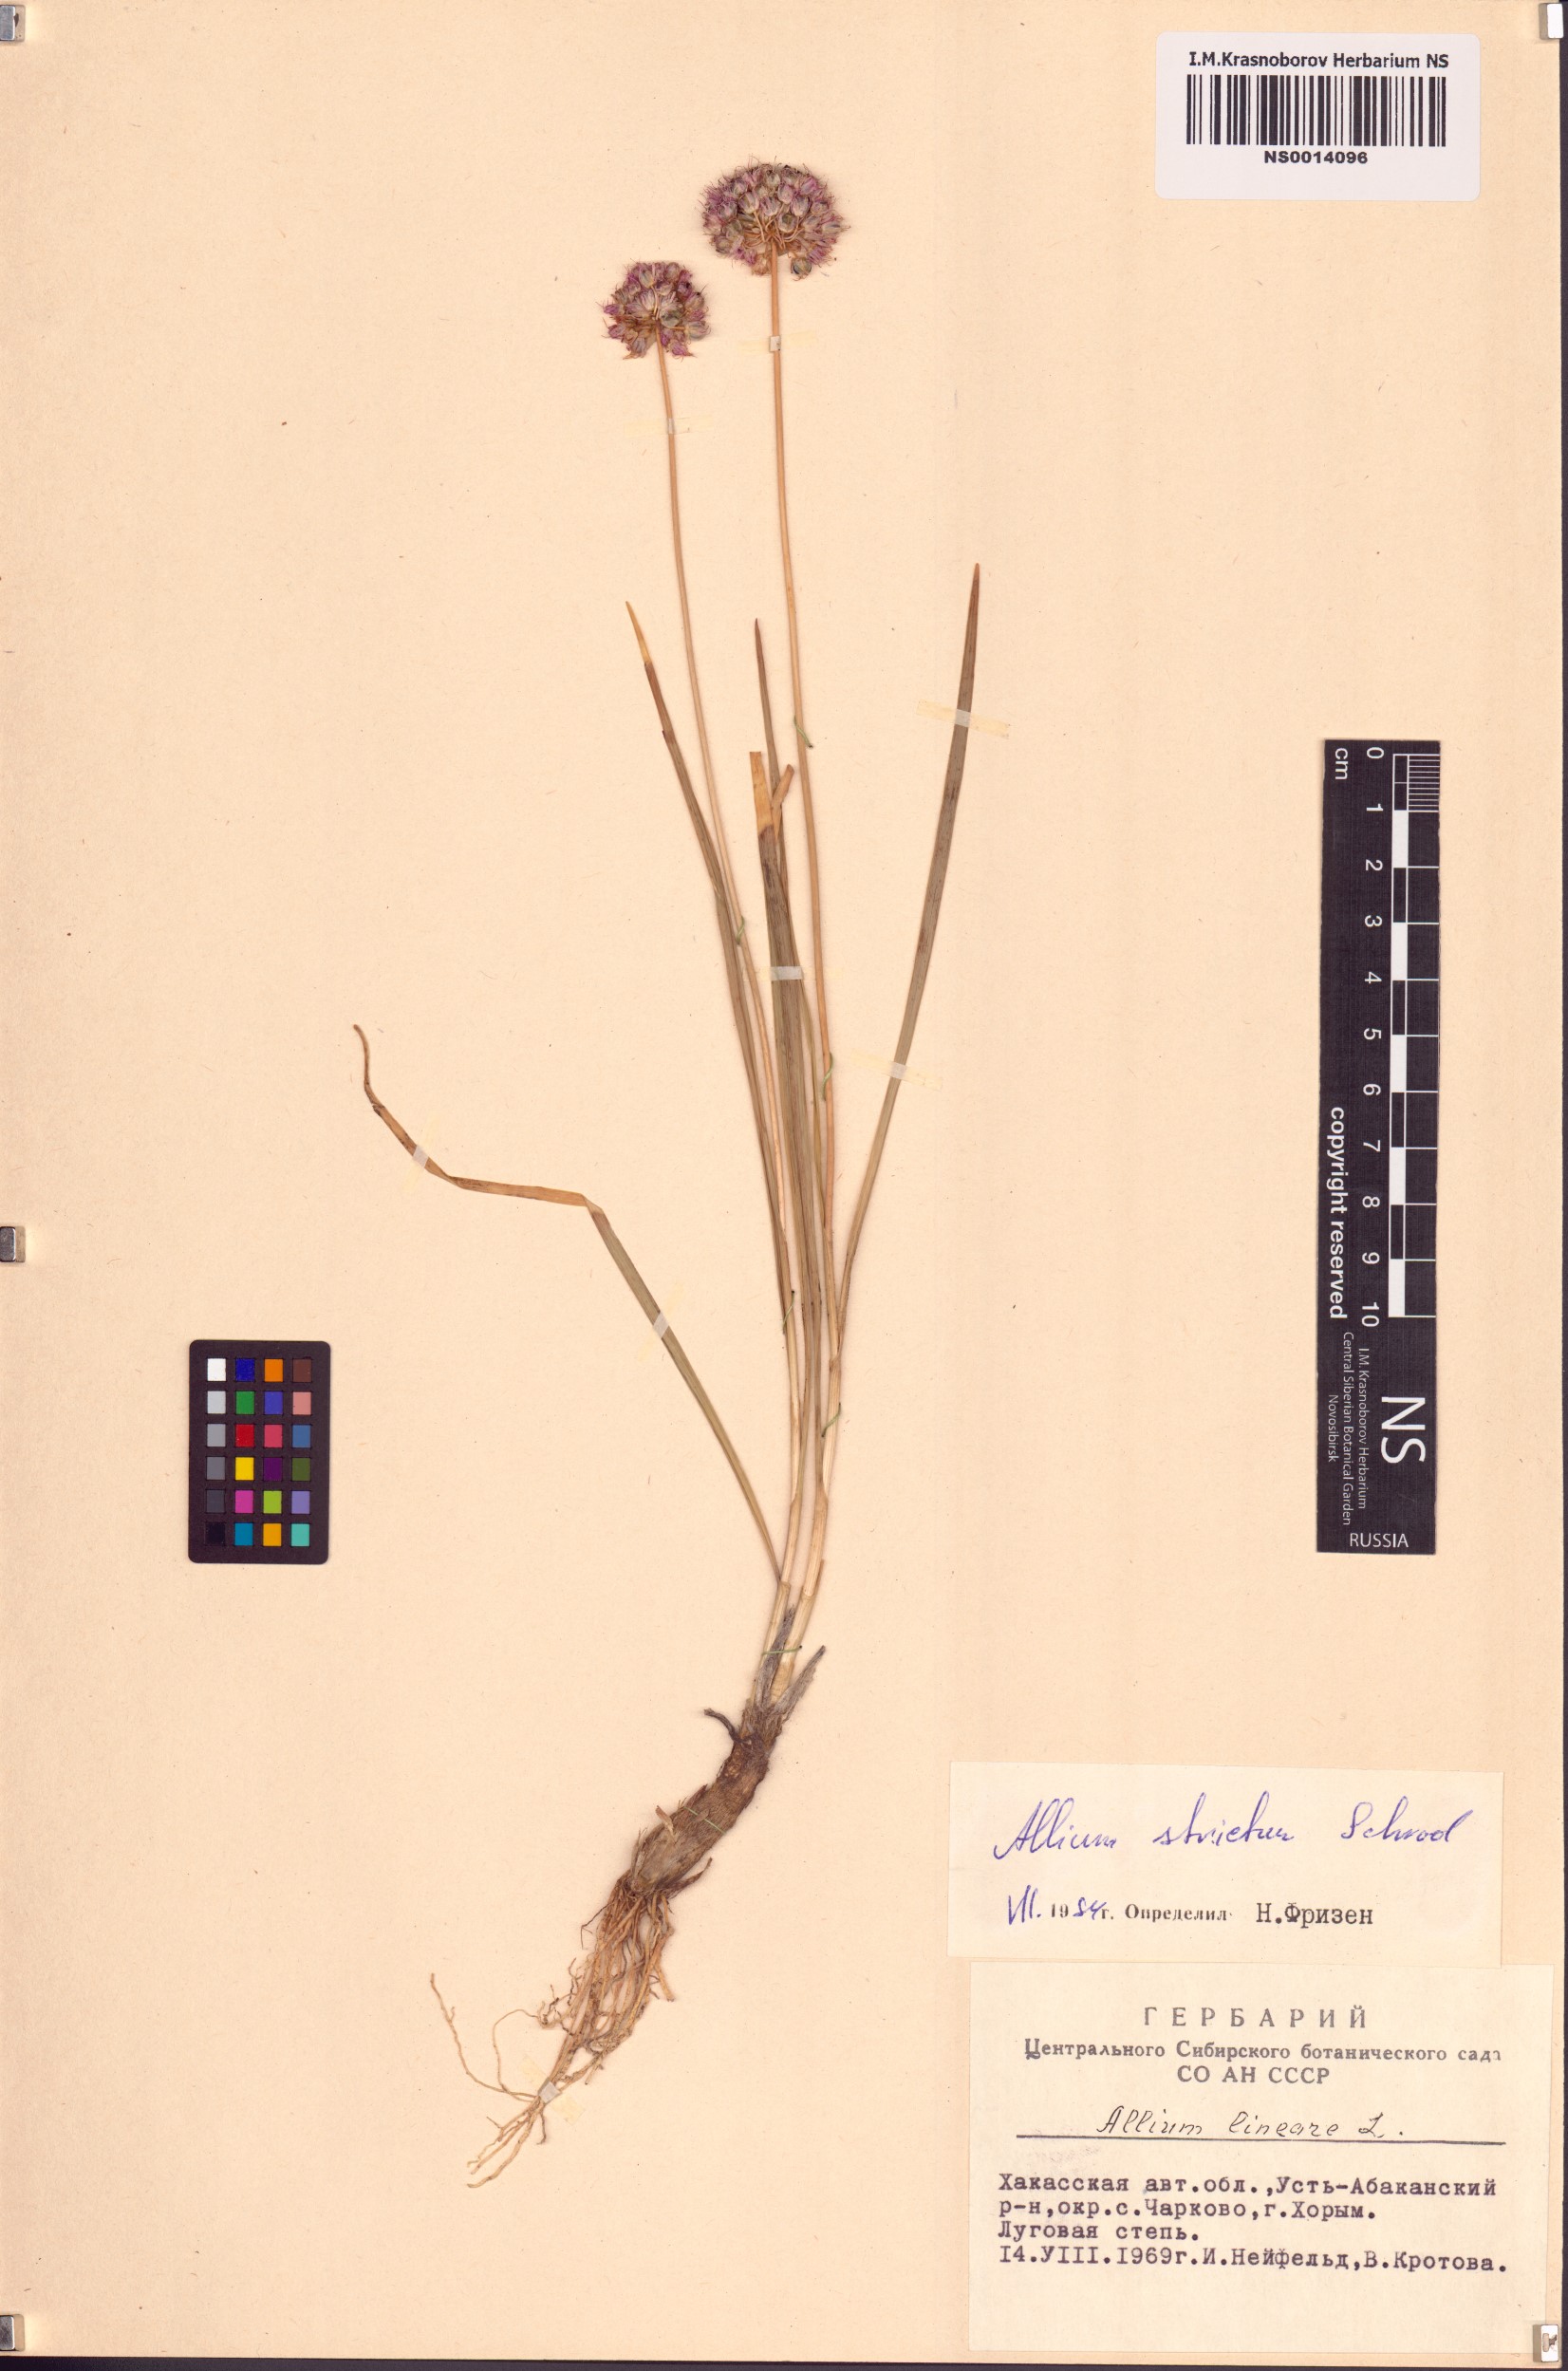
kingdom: Plantae
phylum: Tracheophyta
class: Liliopsida
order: Asparagales
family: Amaryllidaceae
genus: Allium
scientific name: Allium strictum
